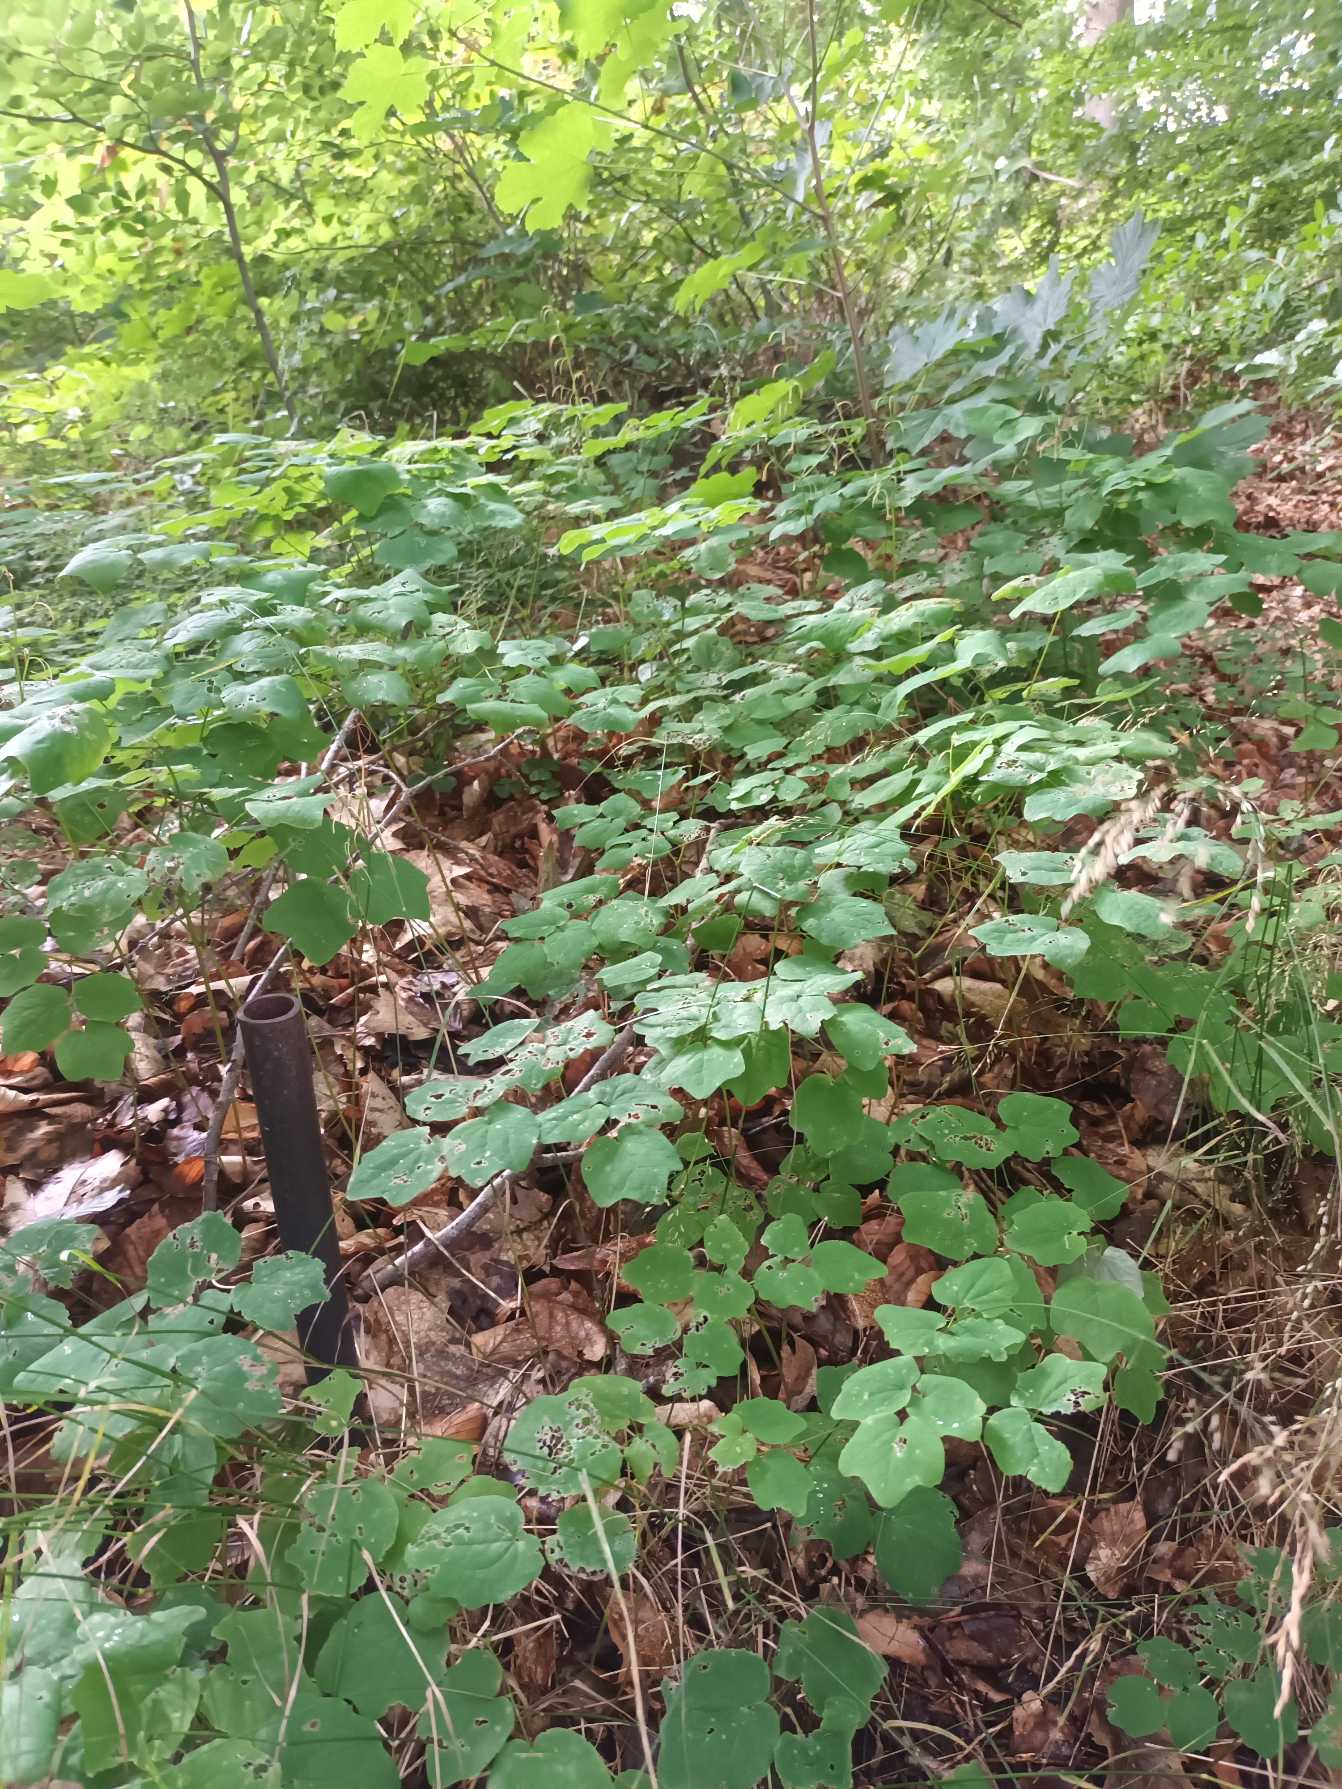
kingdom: Plantae
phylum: Tracheophyta
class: Magnoliopsida
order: Ranunculales
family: Berberidaceae
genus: Vancouveria
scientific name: Vancouveria hexandra
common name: Amerikansk bispehue
